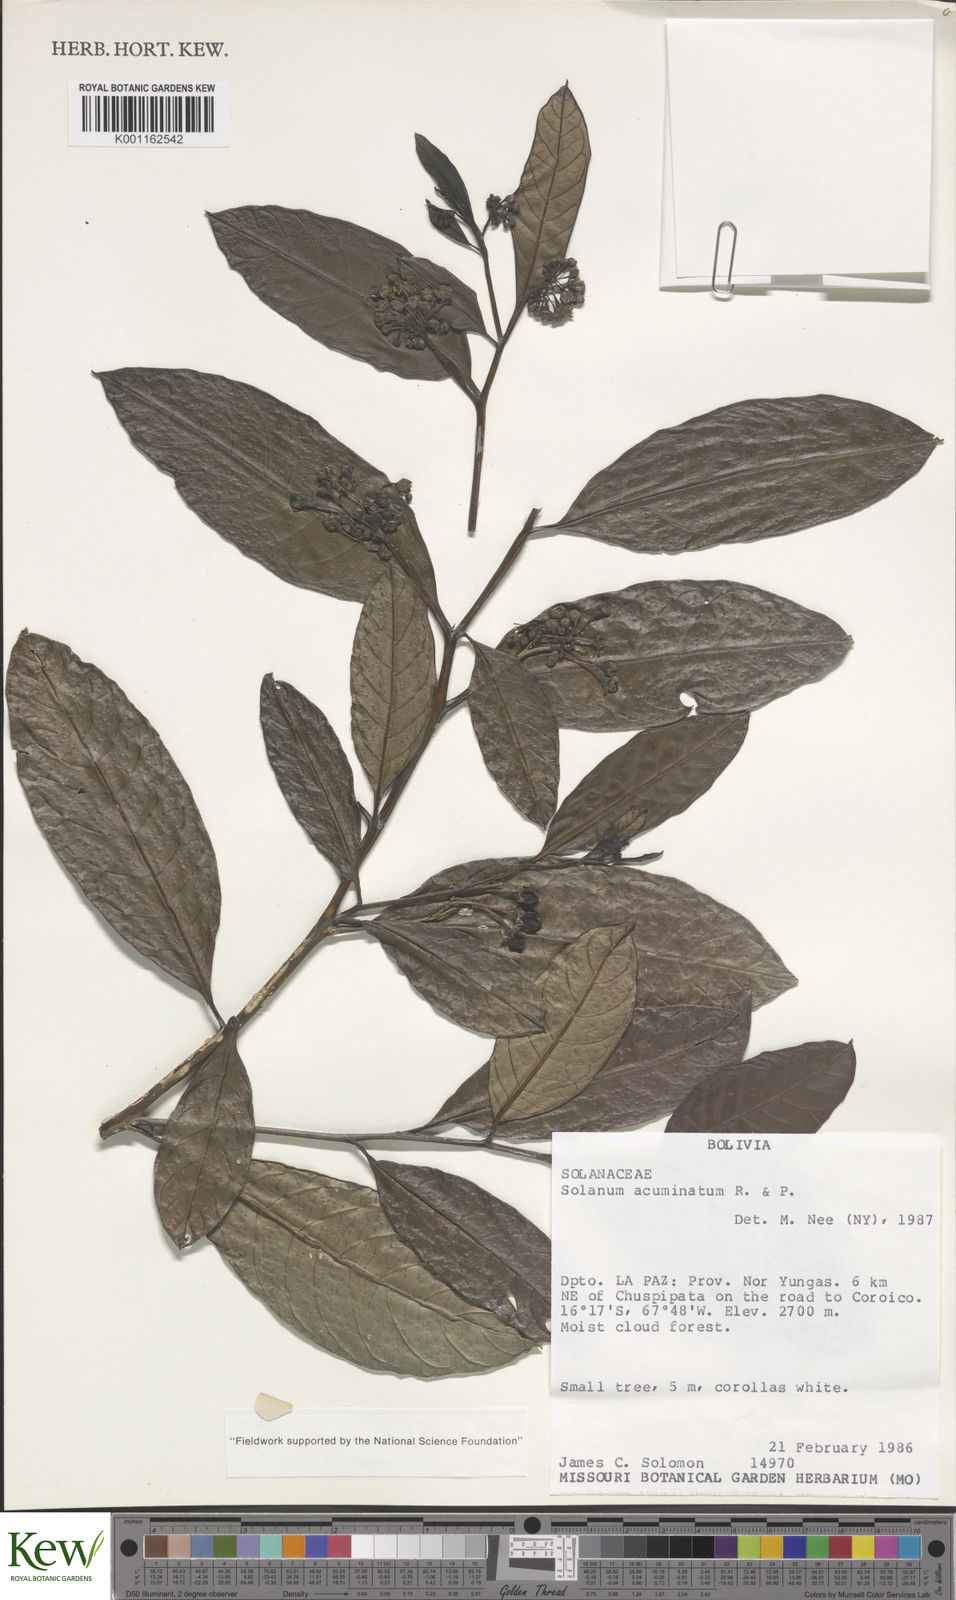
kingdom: Plantae
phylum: Tracheophyta
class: Magnoliopsida
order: Solanales
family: Solanaceae
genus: Solanum
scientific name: Solanum acuminatum
